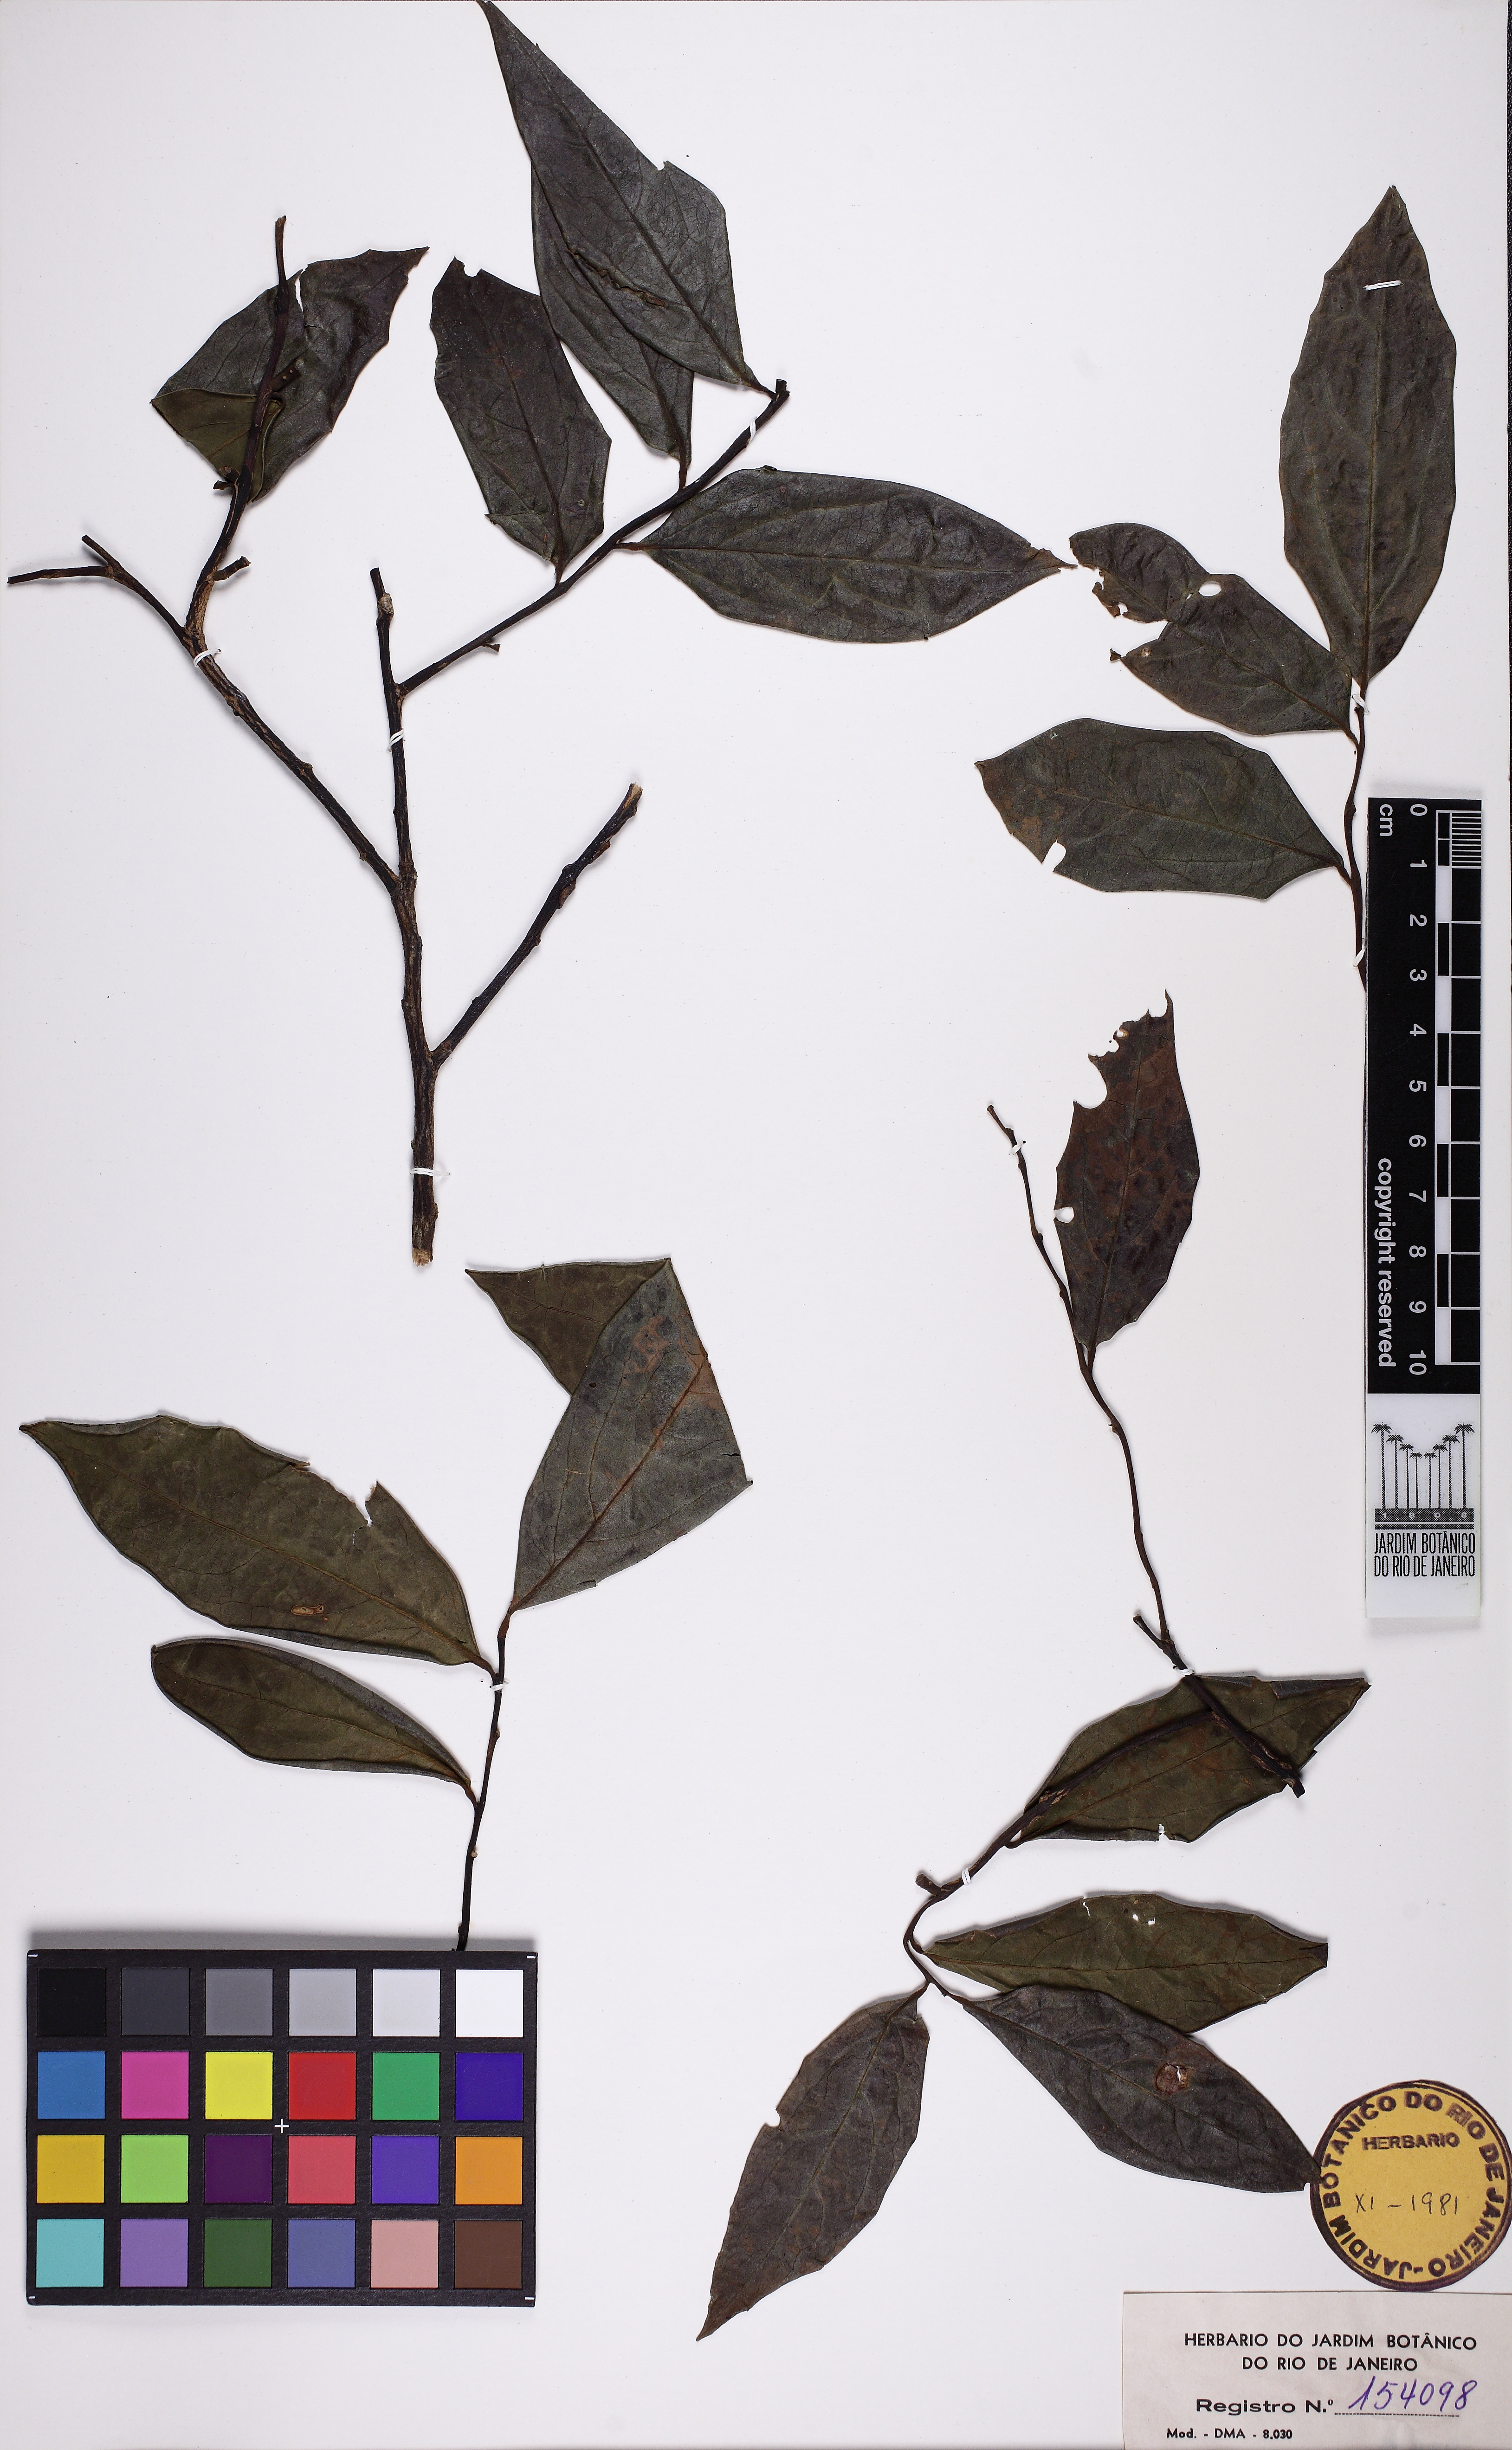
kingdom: Plantae
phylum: Tracheophyta
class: Magnoliopsida
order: Santalales
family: Olacaceae
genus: Dulacia
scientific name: Dulacia guianensis
